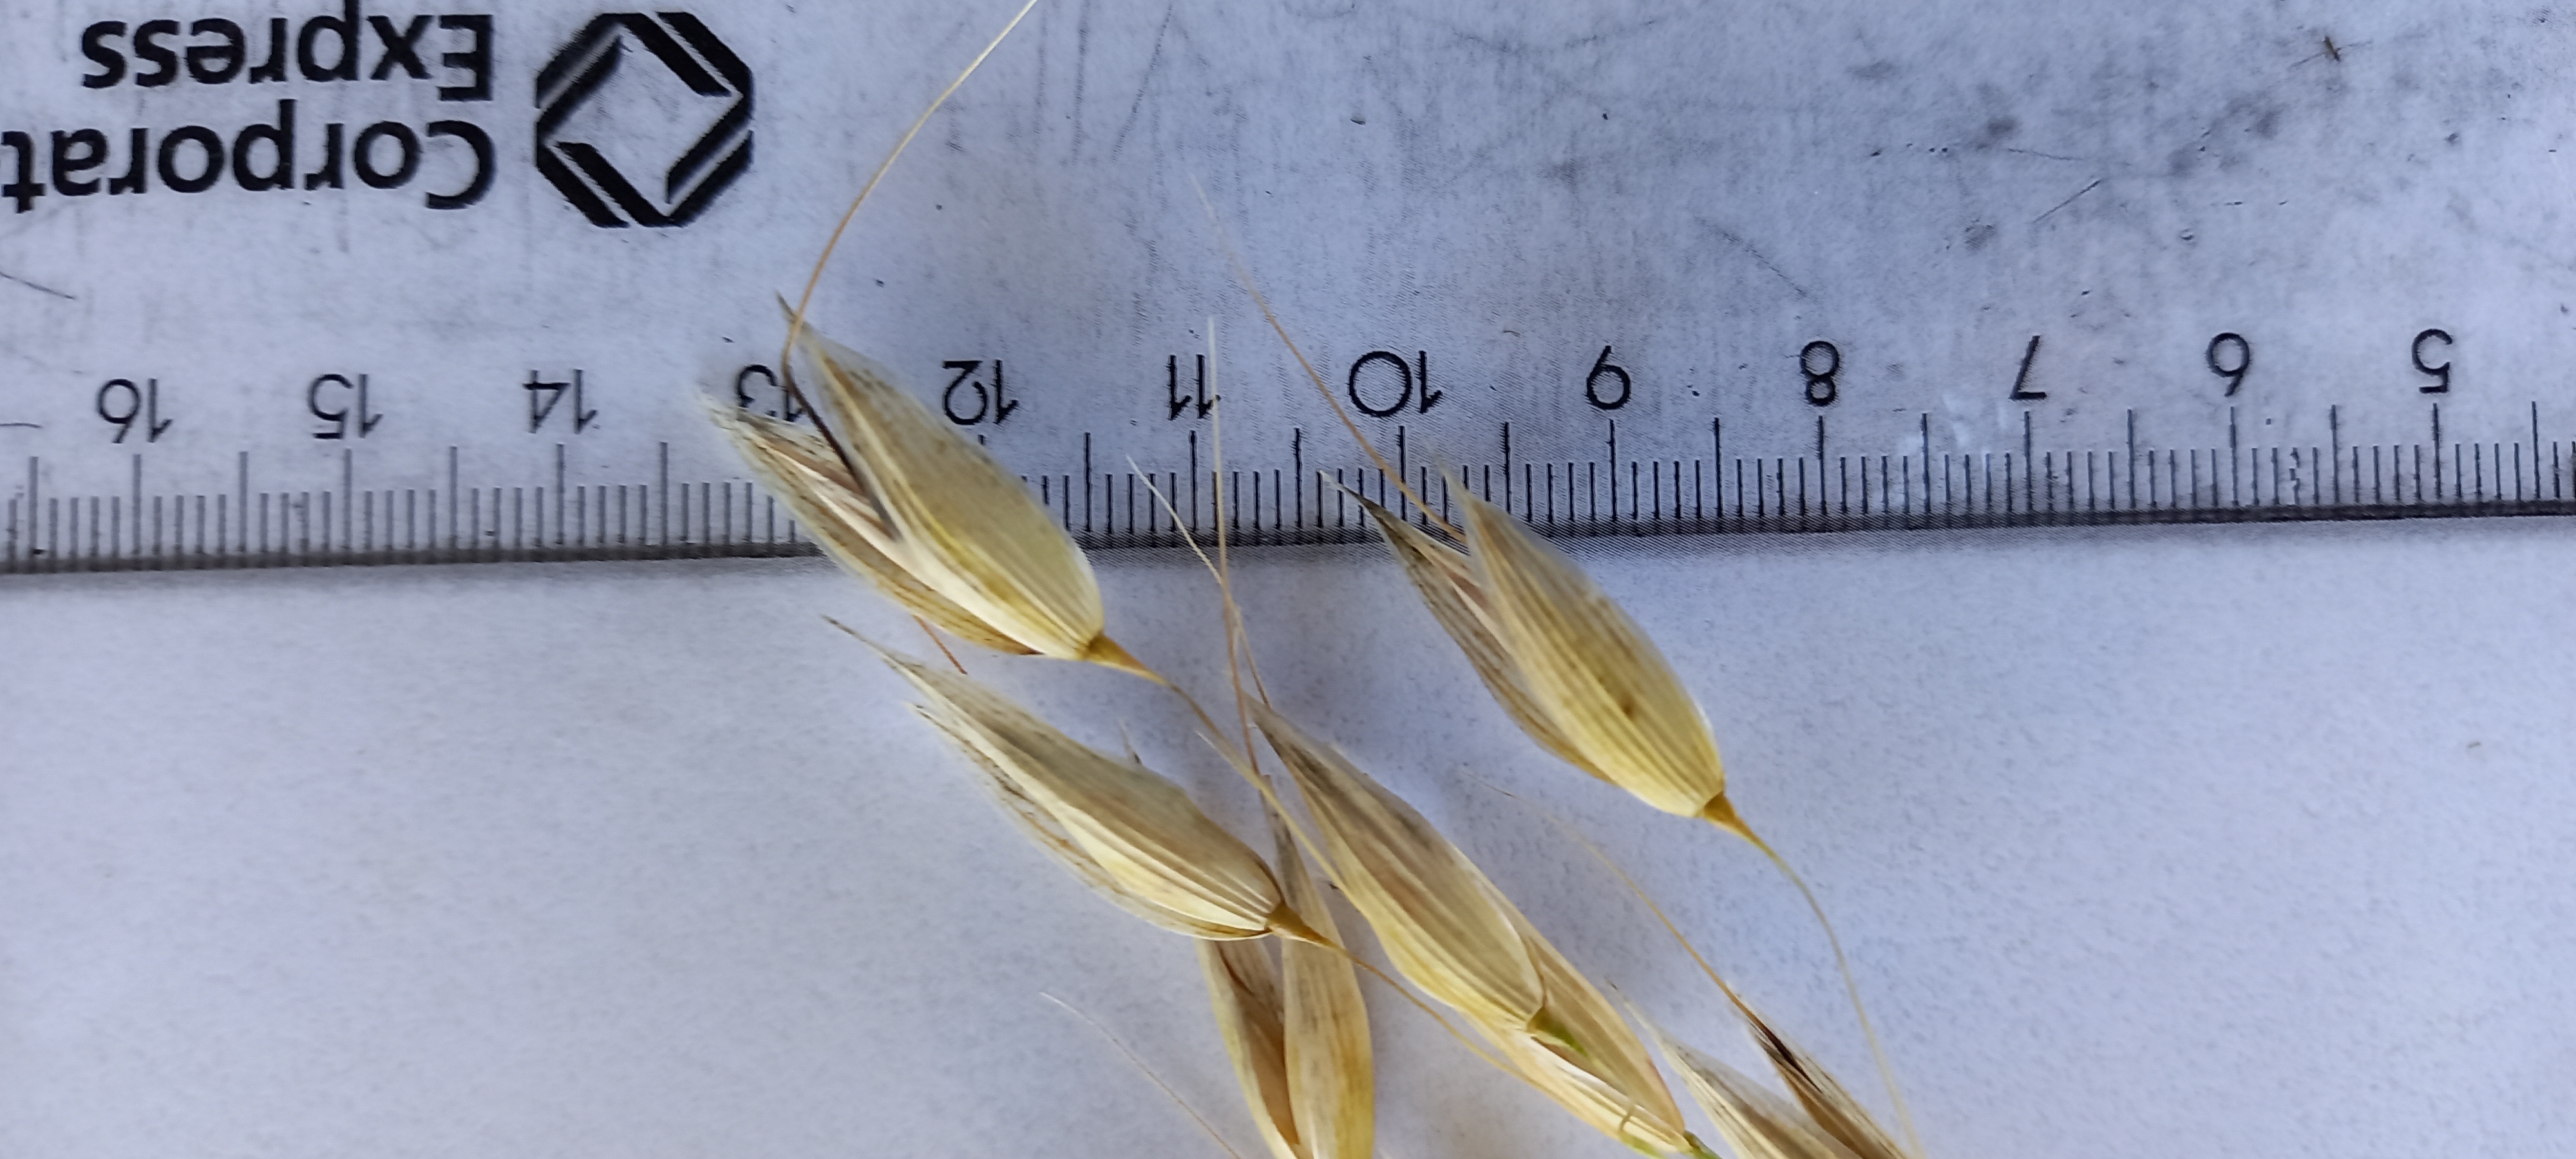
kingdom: Plantae
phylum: Tracheophyta
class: Liliopsida
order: Poales
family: Poaceae
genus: Avena
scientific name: Avena sativa
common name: Oat
